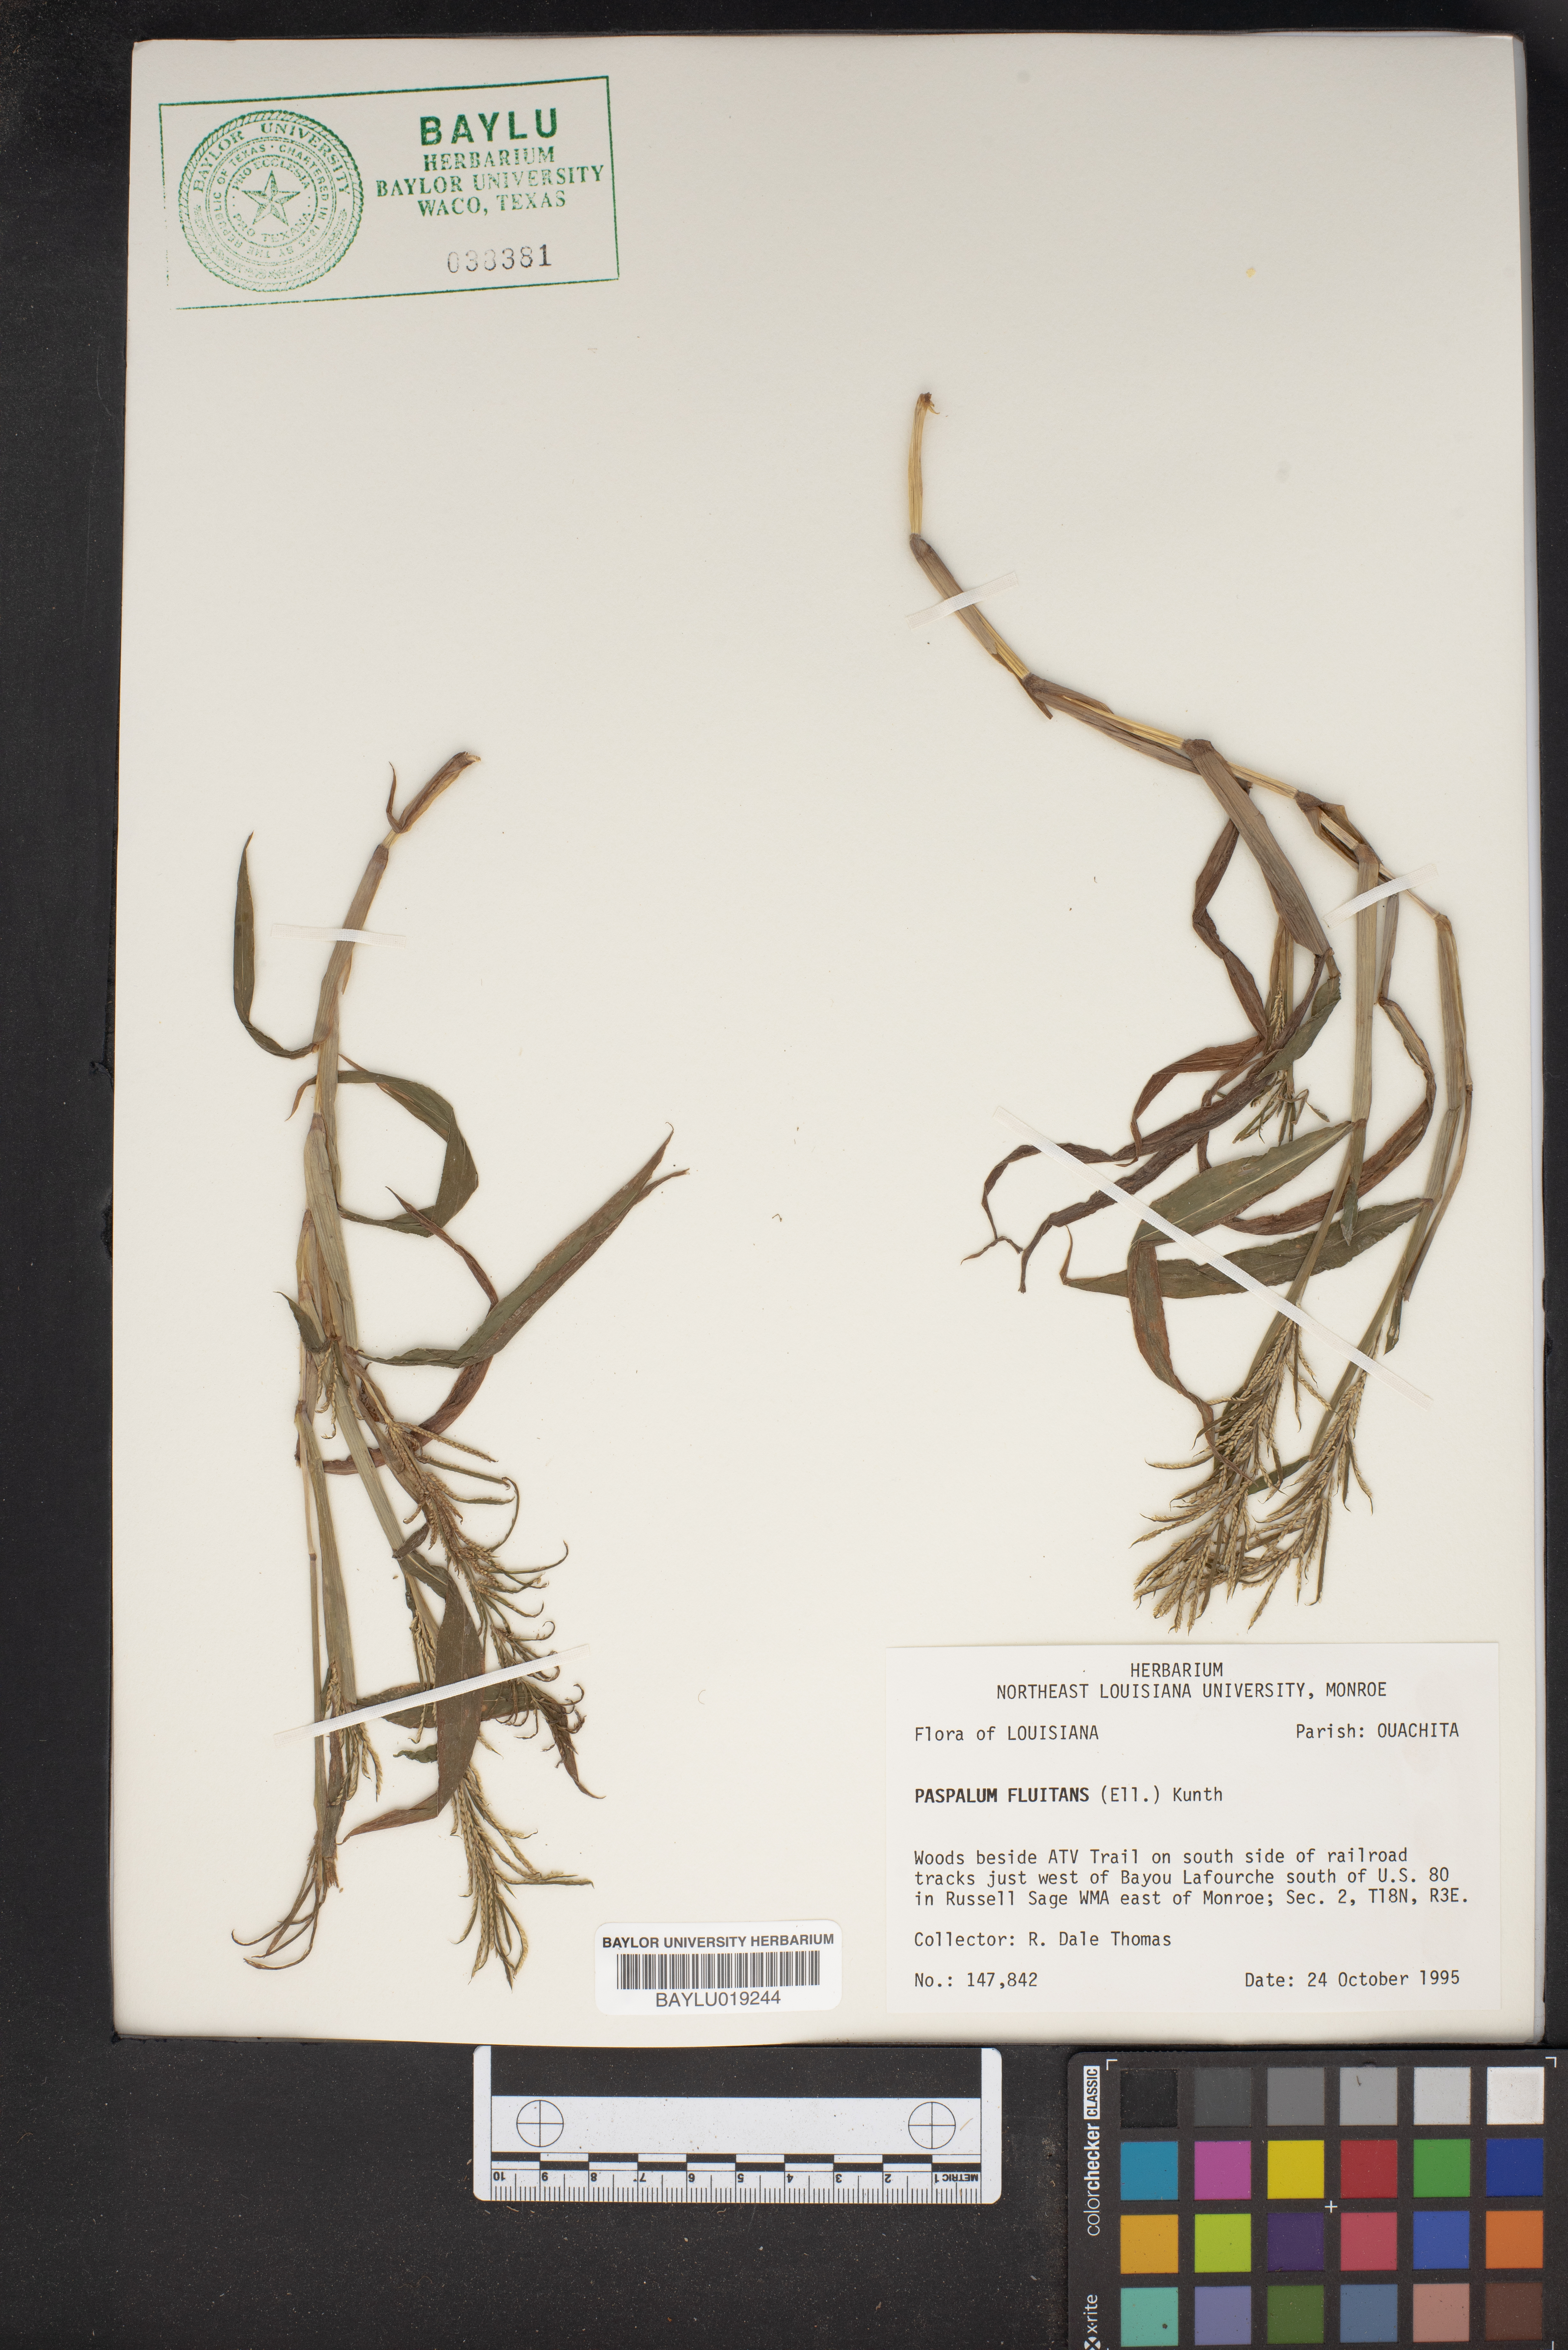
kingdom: Plantae
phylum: Tracheophyta
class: Liliopsida
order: Poales
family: Poaceae
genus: Paspalum
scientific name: Paspalum repens
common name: Water paspalum
